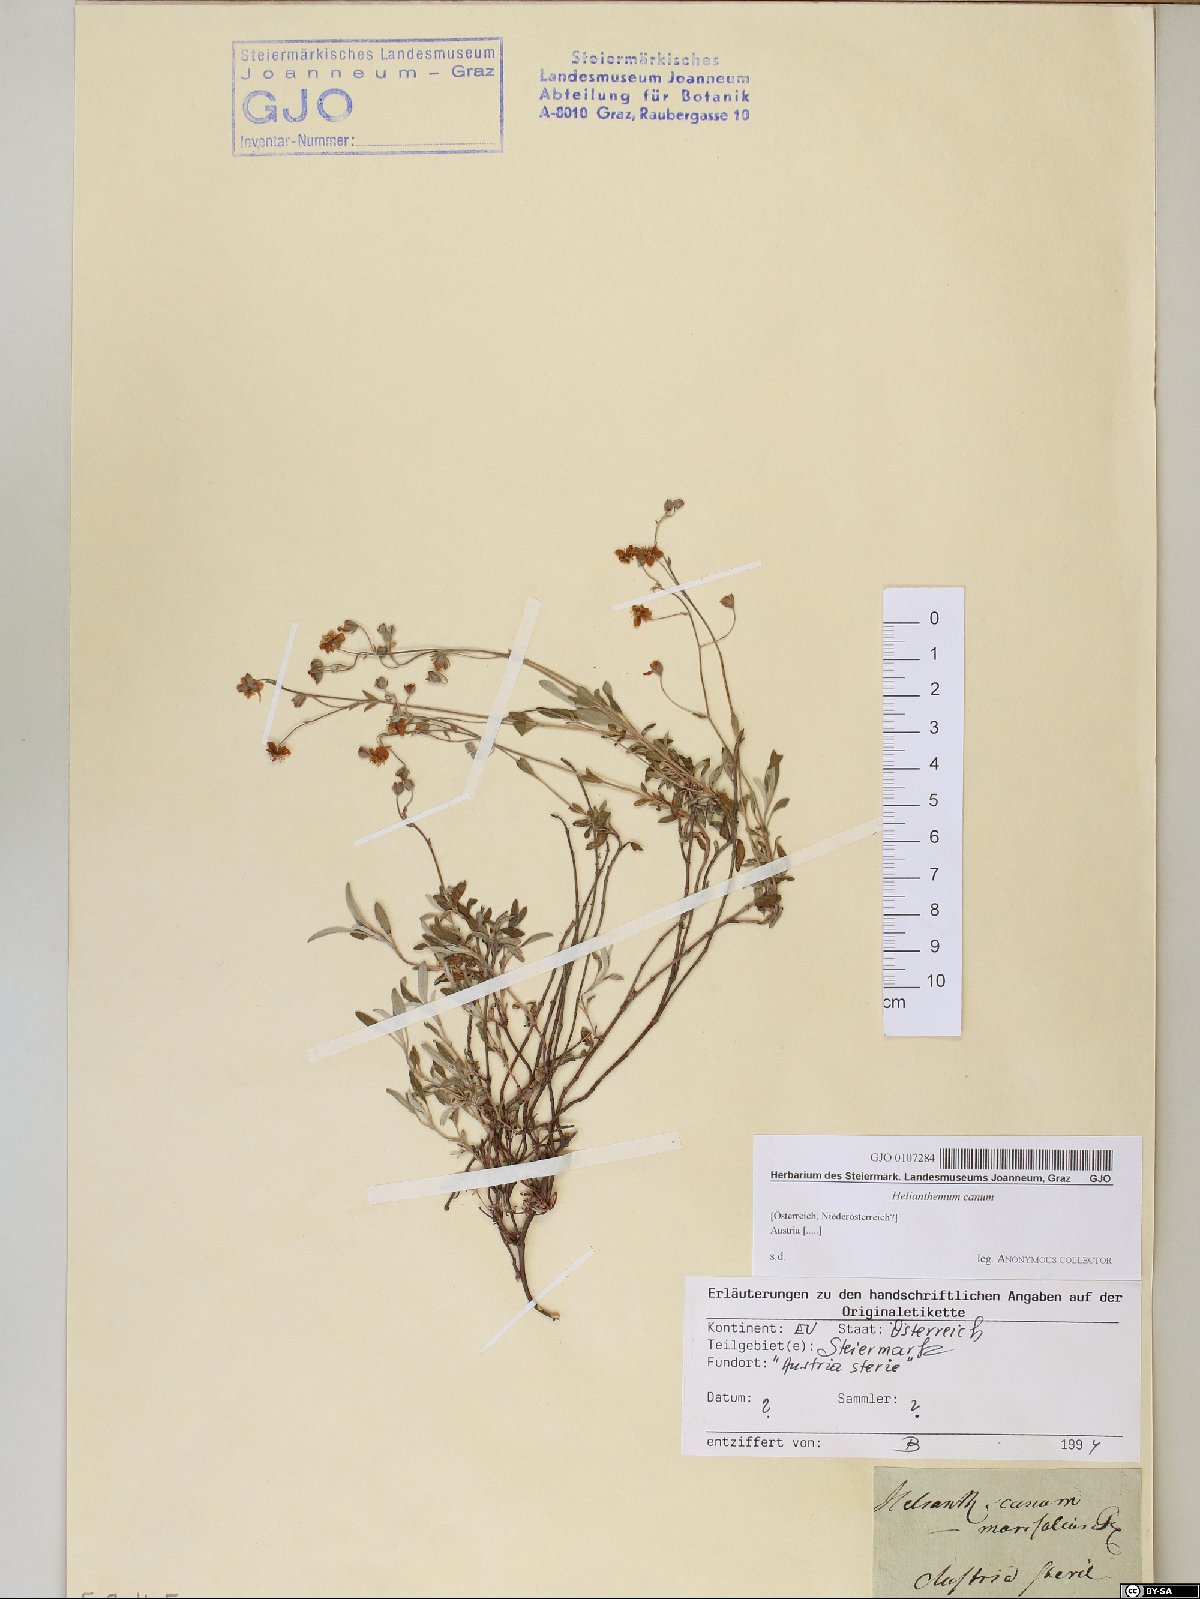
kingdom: Plantae
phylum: Tracheophyta
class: Magnoliopsida
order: Malvales
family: Cistaceae
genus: Helianthemum
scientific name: Helianthemum canum
